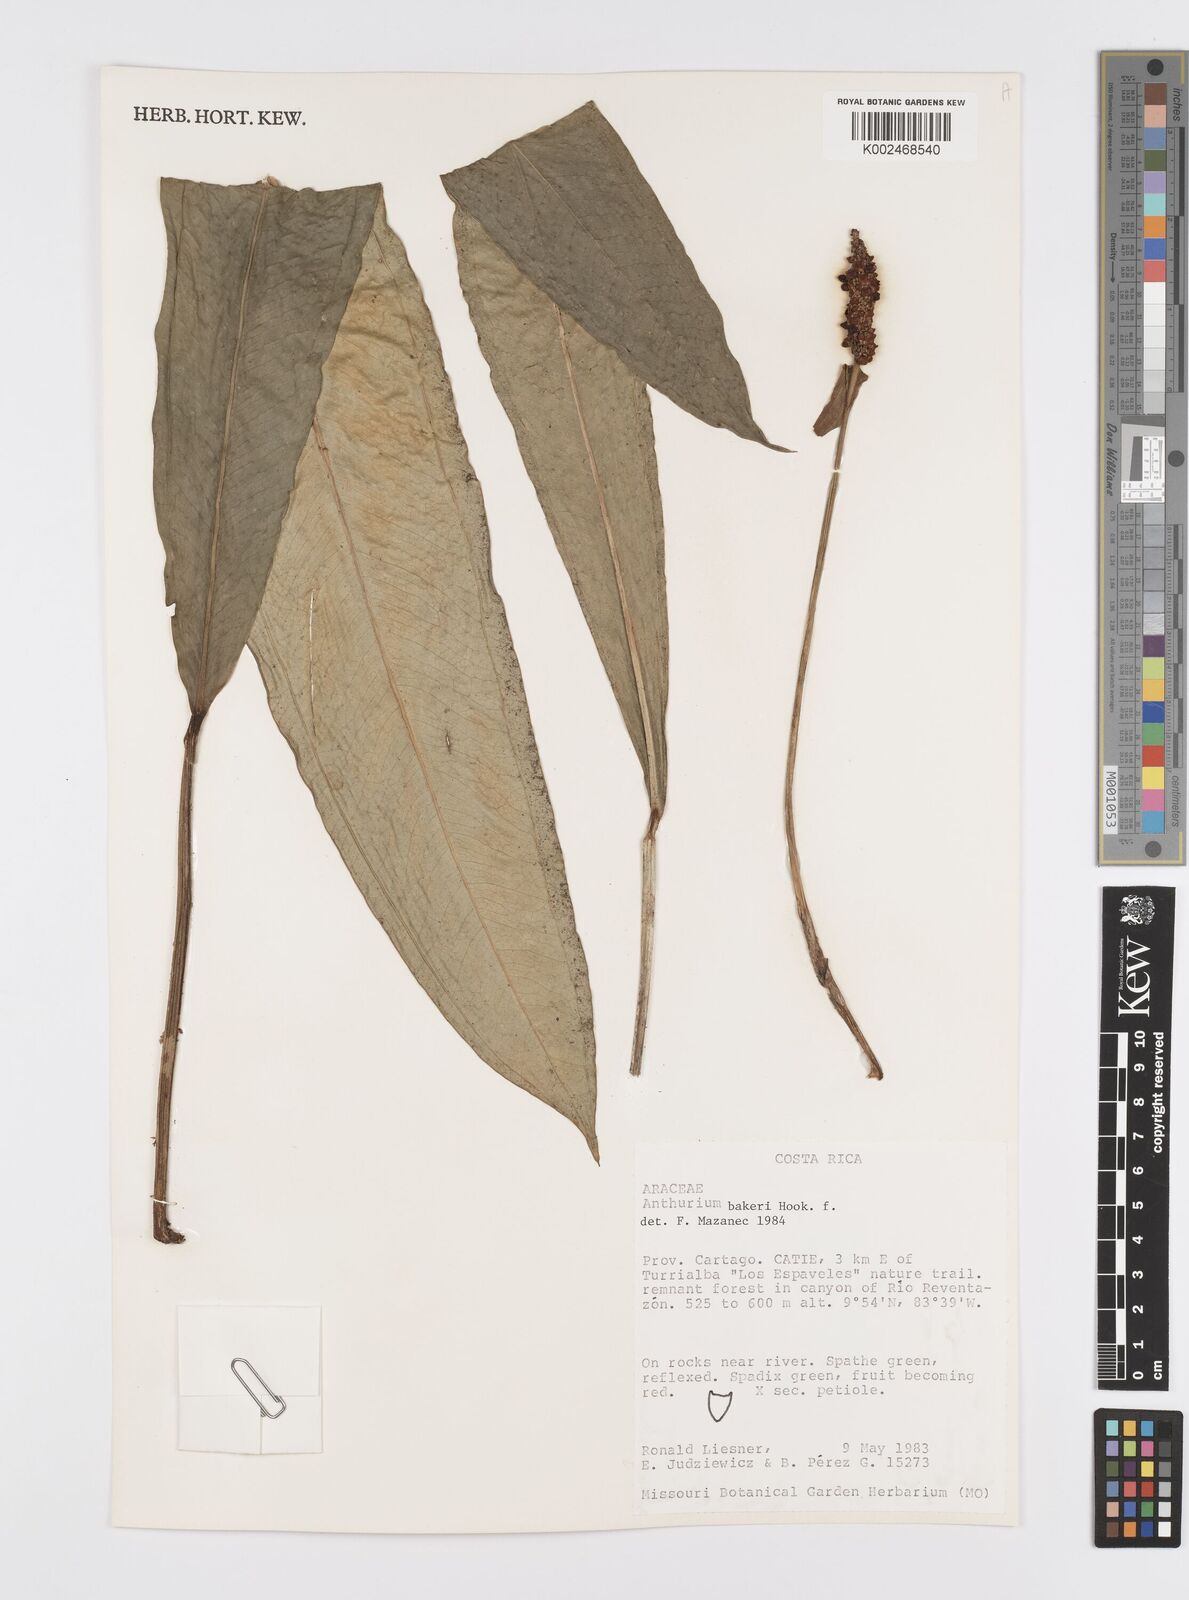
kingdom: Plantae
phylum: Tracheophyta
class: Liliopsida
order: Alismatales
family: Araceae
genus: Anthurium
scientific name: Anthurium bakeri
